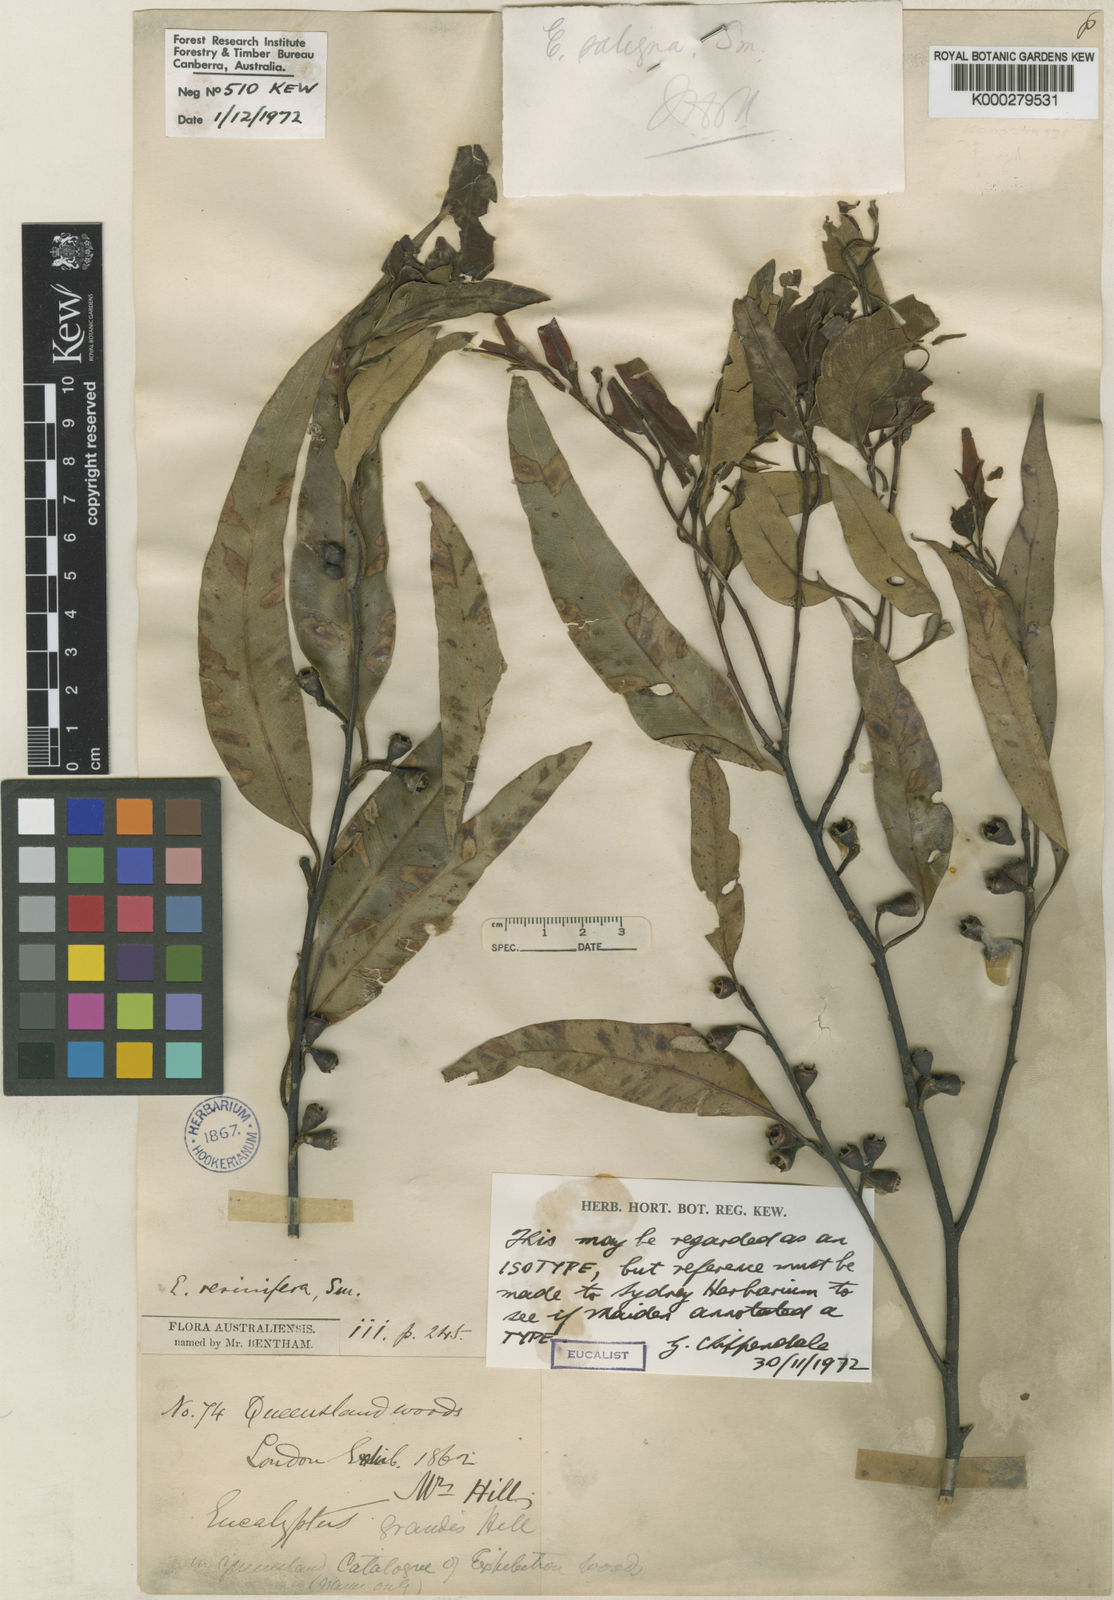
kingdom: Plantae
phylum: Tracheophyta
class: Magnoliopsida
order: Myrtales
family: Myrtaceae
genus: Eucalyptus
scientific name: Eucalyptus grandis
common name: Grand eucalyptus
